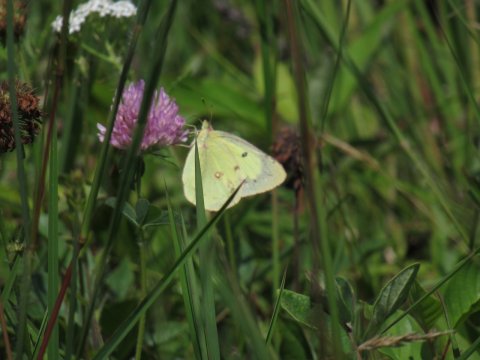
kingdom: Animalia
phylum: Arthropoda
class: Insecta
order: Lepidoptera
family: Pieridae
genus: Colias
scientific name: Colias philodice
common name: Clouded Sulphur
